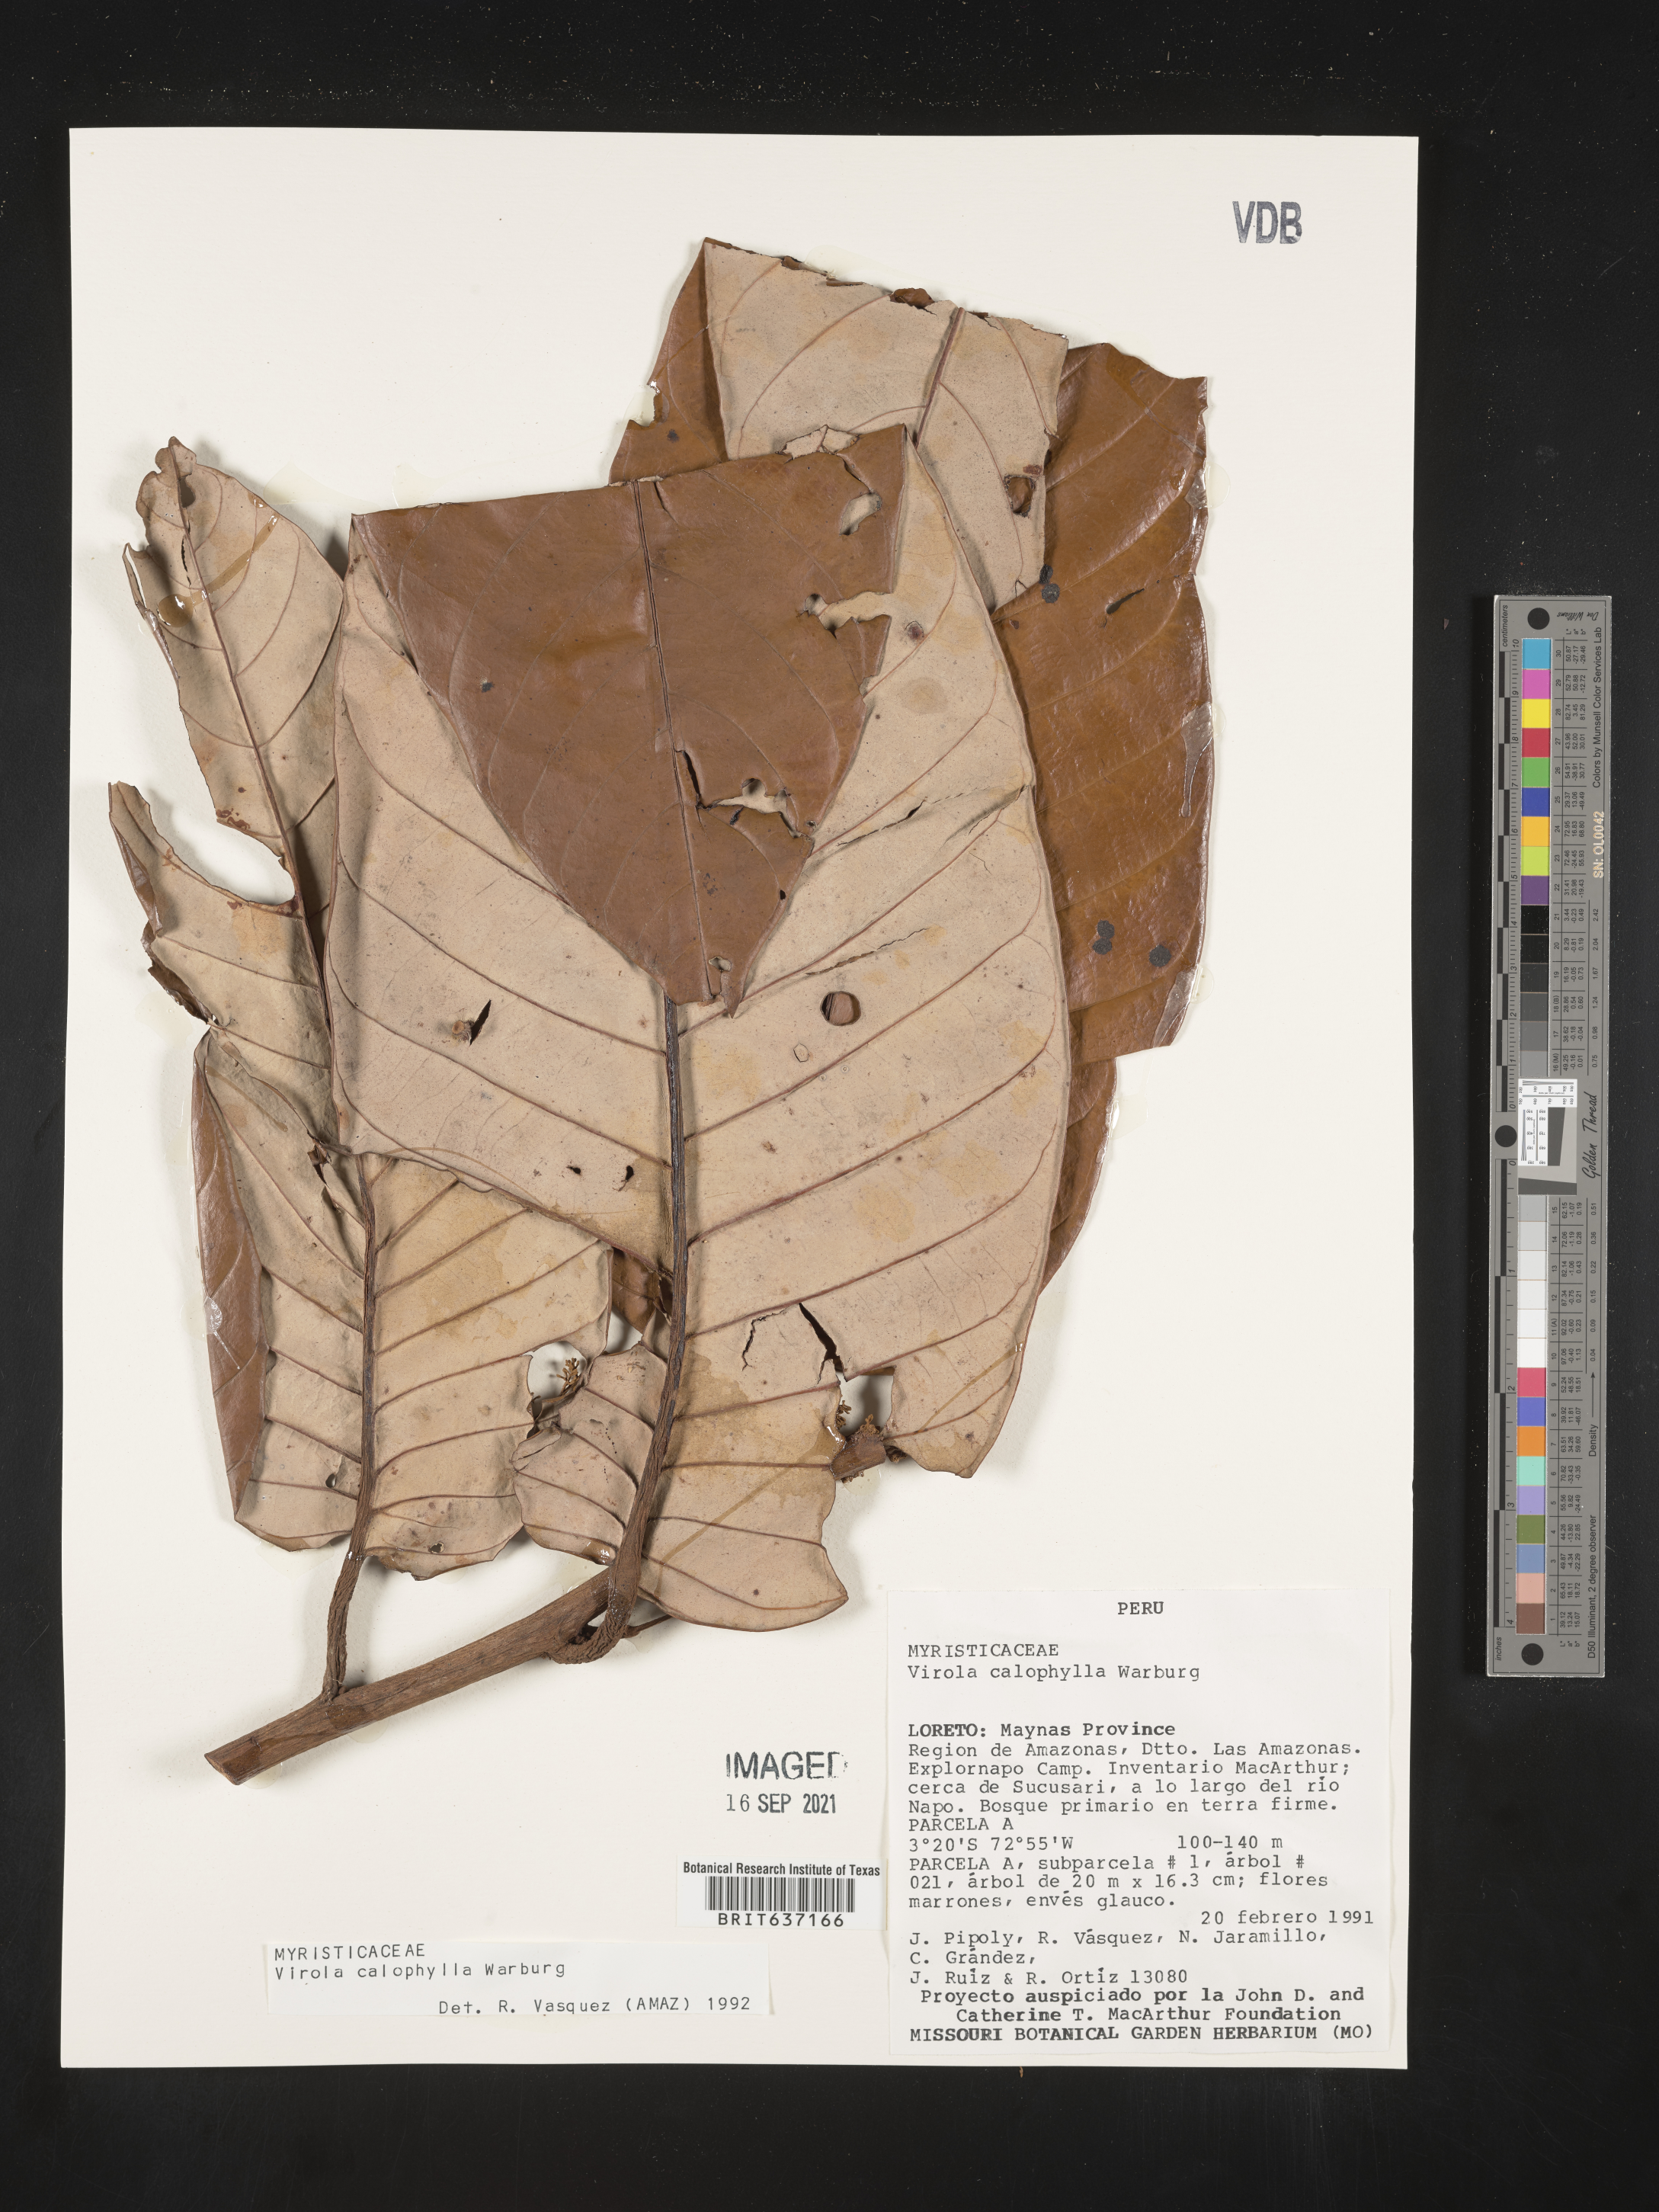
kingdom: Plantae
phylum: Tracheophyta
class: Magnoliopsida
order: Magnoliales
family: Myristicaceae
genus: Virola
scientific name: Virola
